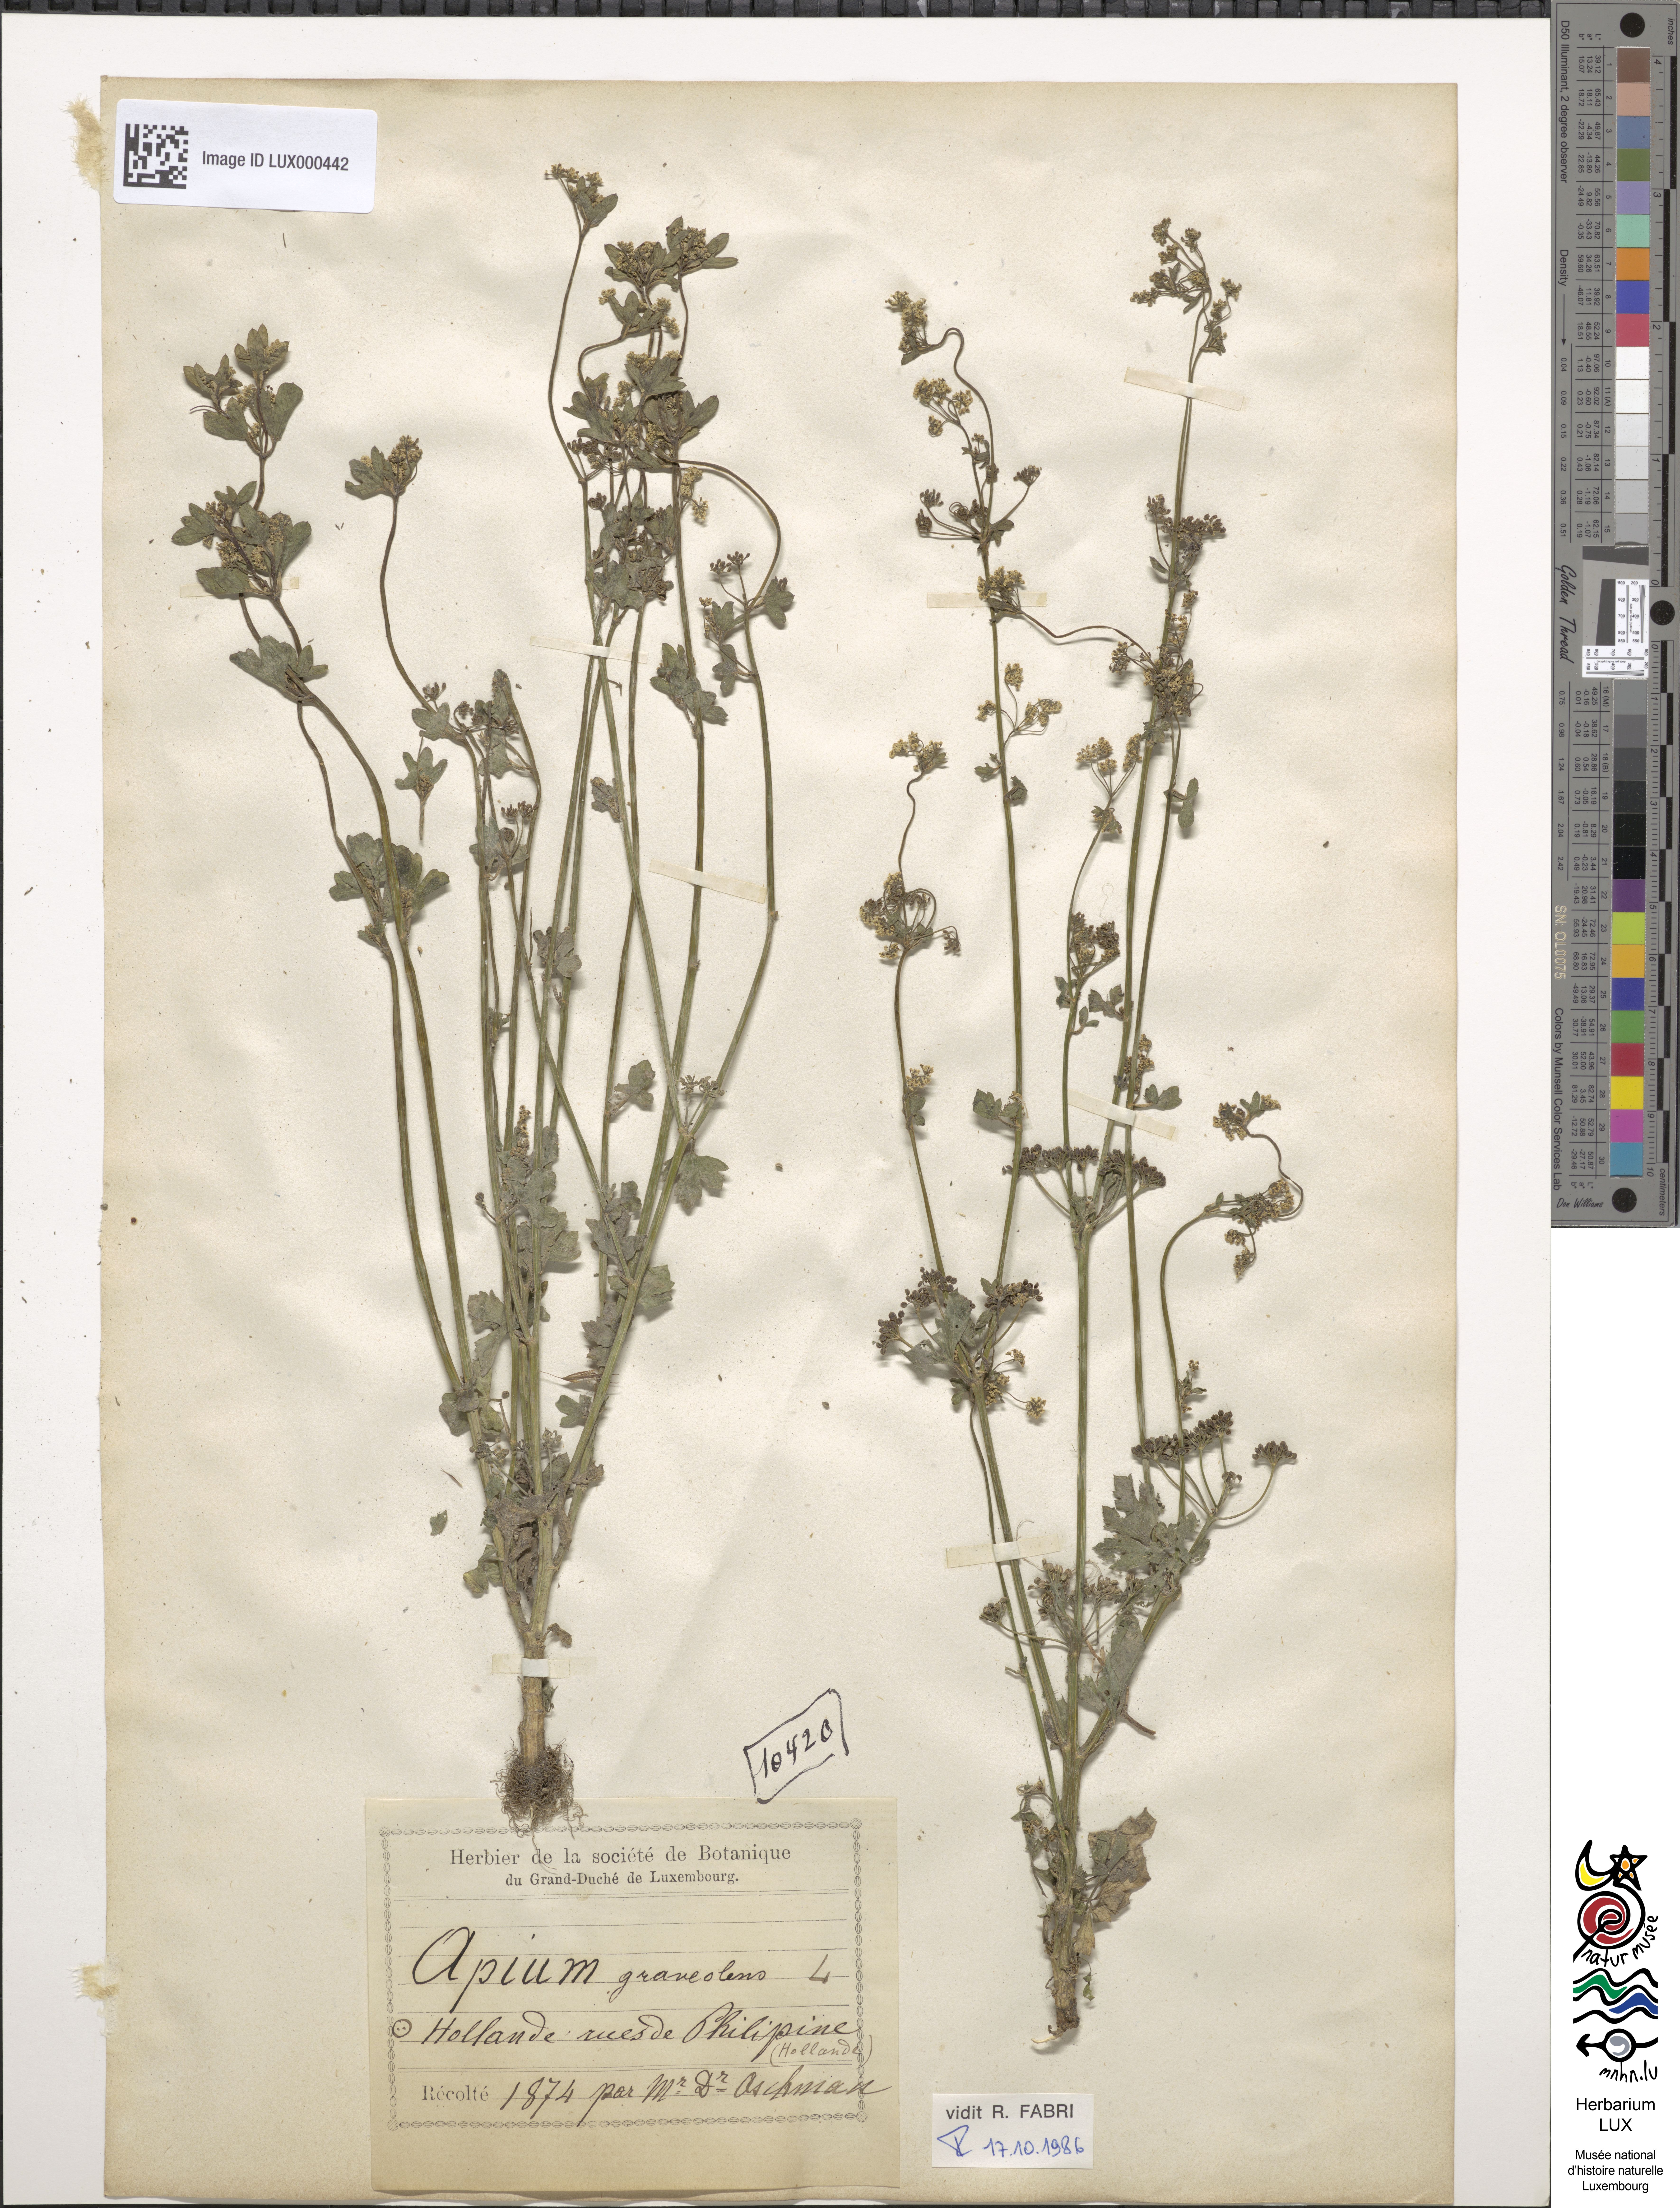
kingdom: Plantae
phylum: Tracheophyta
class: Magnoliopsida
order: Apiales
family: Apiaceae
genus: Apium
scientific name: Apium graveolens
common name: Wild celery
